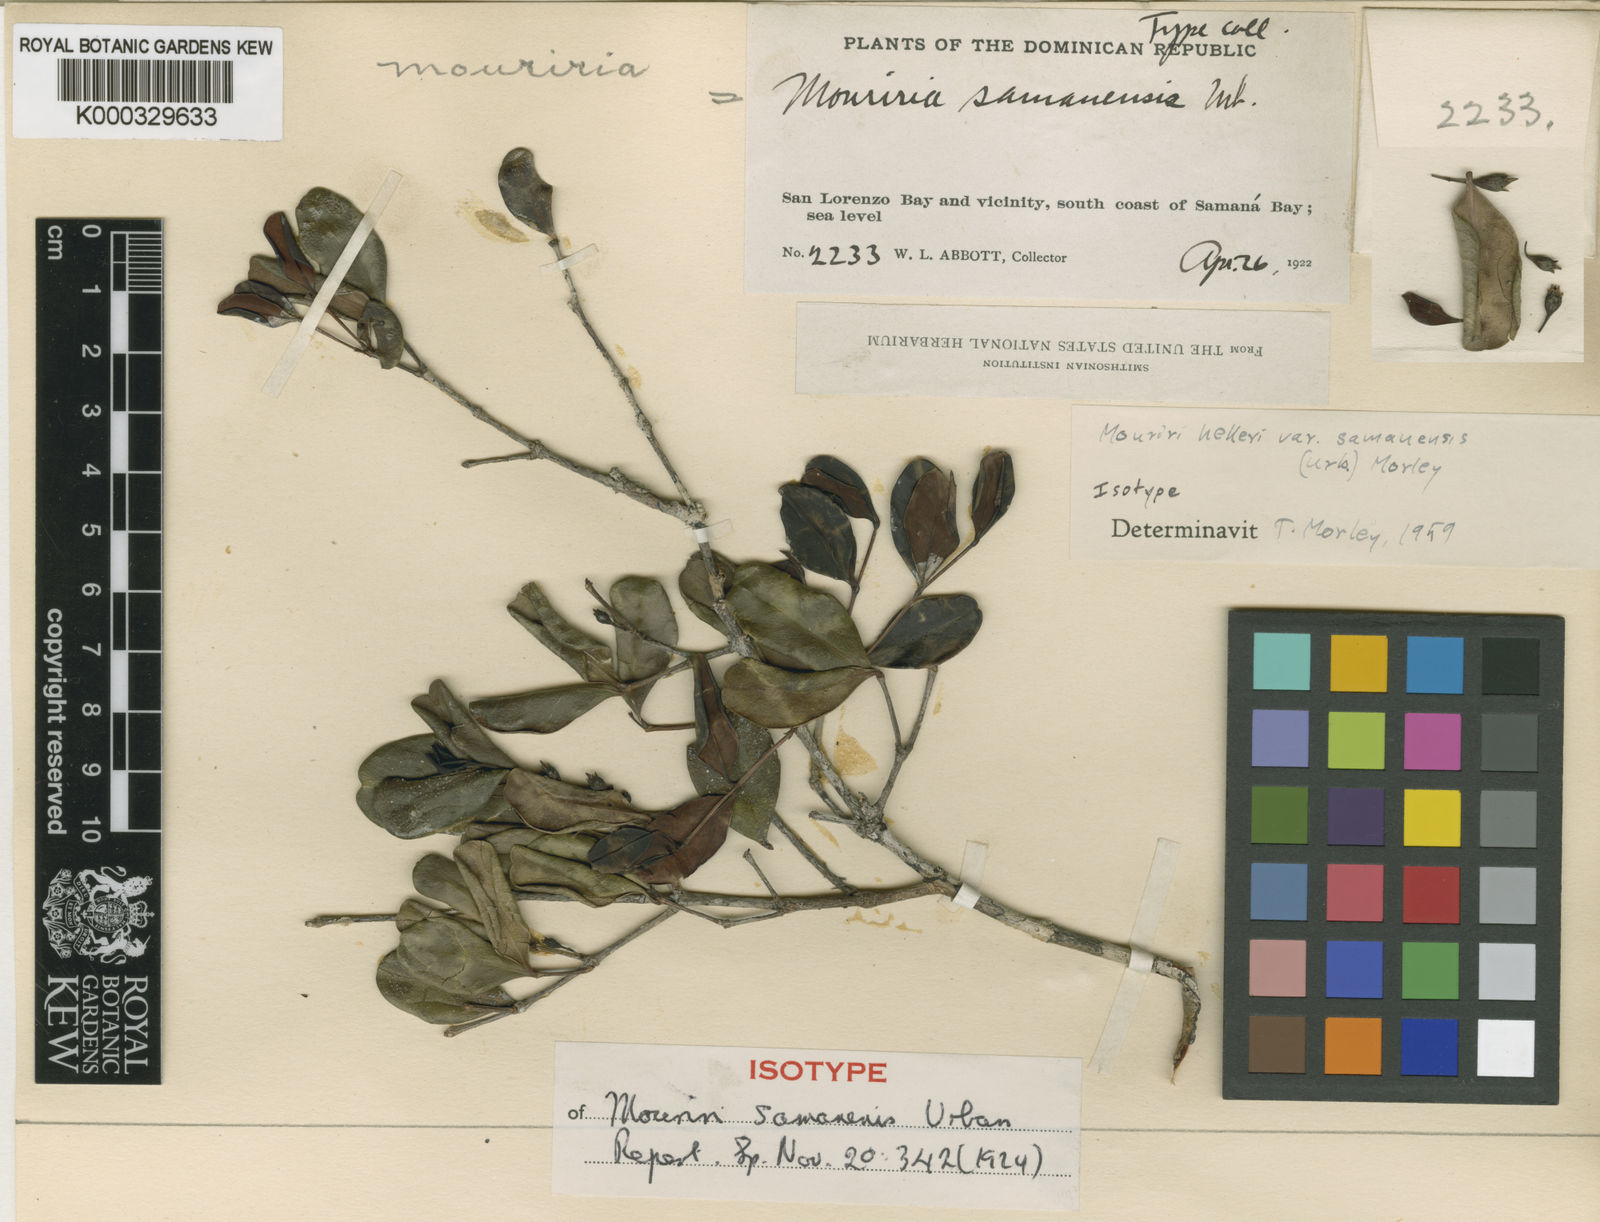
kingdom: Plantae
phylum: Tracheophyta
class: Magnoliopsida
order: Myrtales
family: Melastomataceae
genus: Mouriri
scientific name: Mouriri helleri
